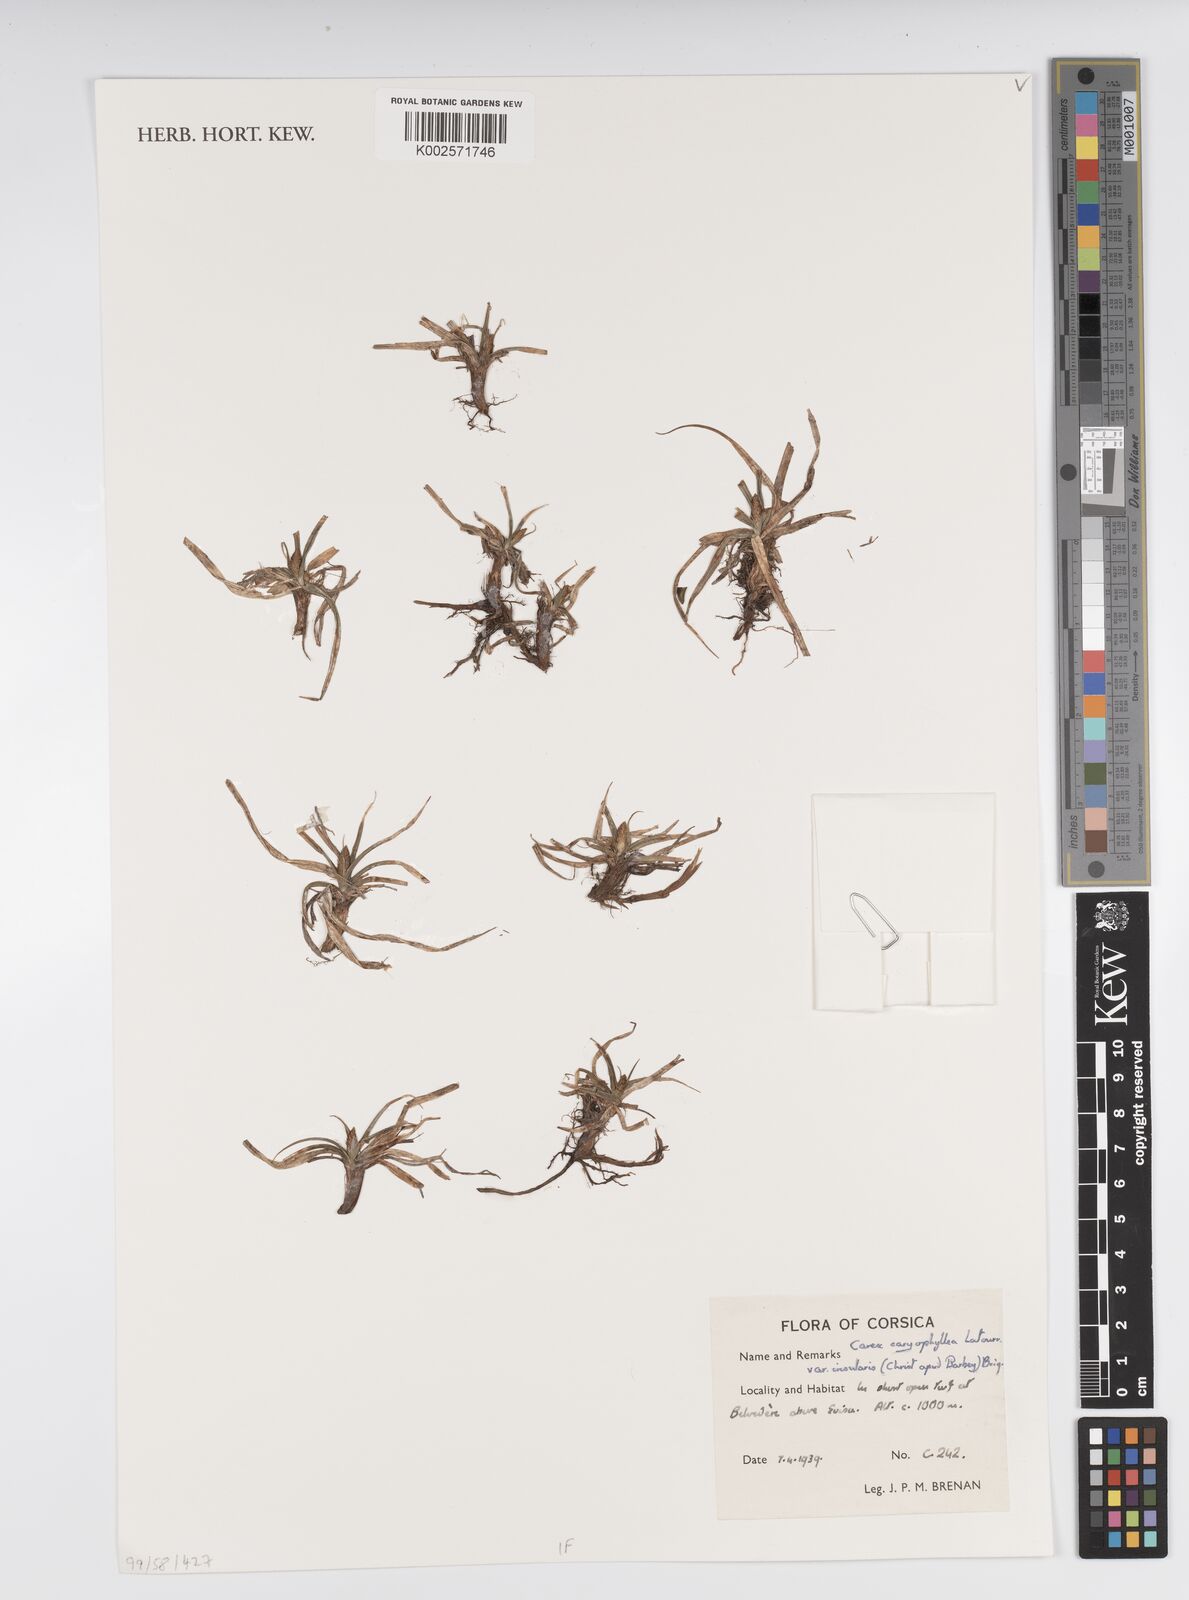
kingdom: Plantae
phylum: Tracheophyta
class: Liliopsida
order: Poales
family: Cyperaceae
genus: Carex
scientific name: Carex caryophyllea
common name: Spring sedge
